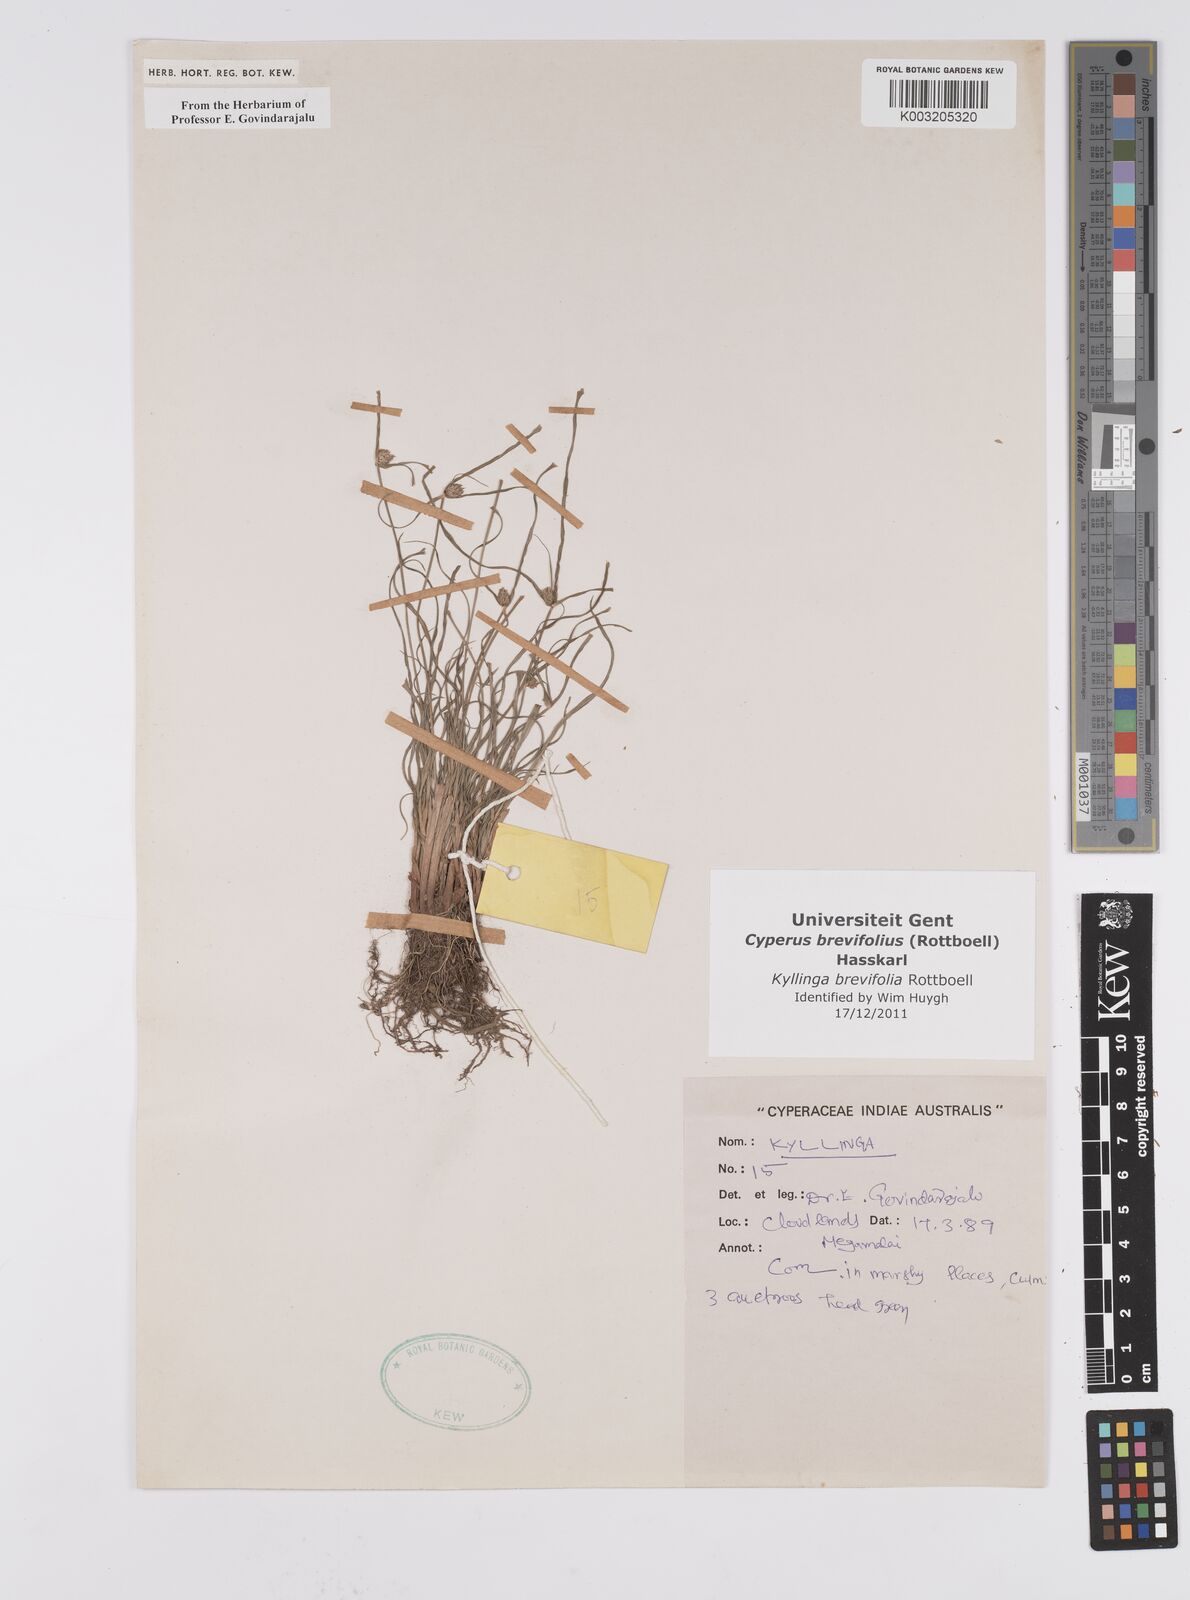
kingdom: Plantae
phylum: Tracheophyta
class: Liliopsida
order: Poales
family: Cyperaceae
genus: Cyperus
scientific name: Cyperus brevifolius
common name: Globe kyllinga
